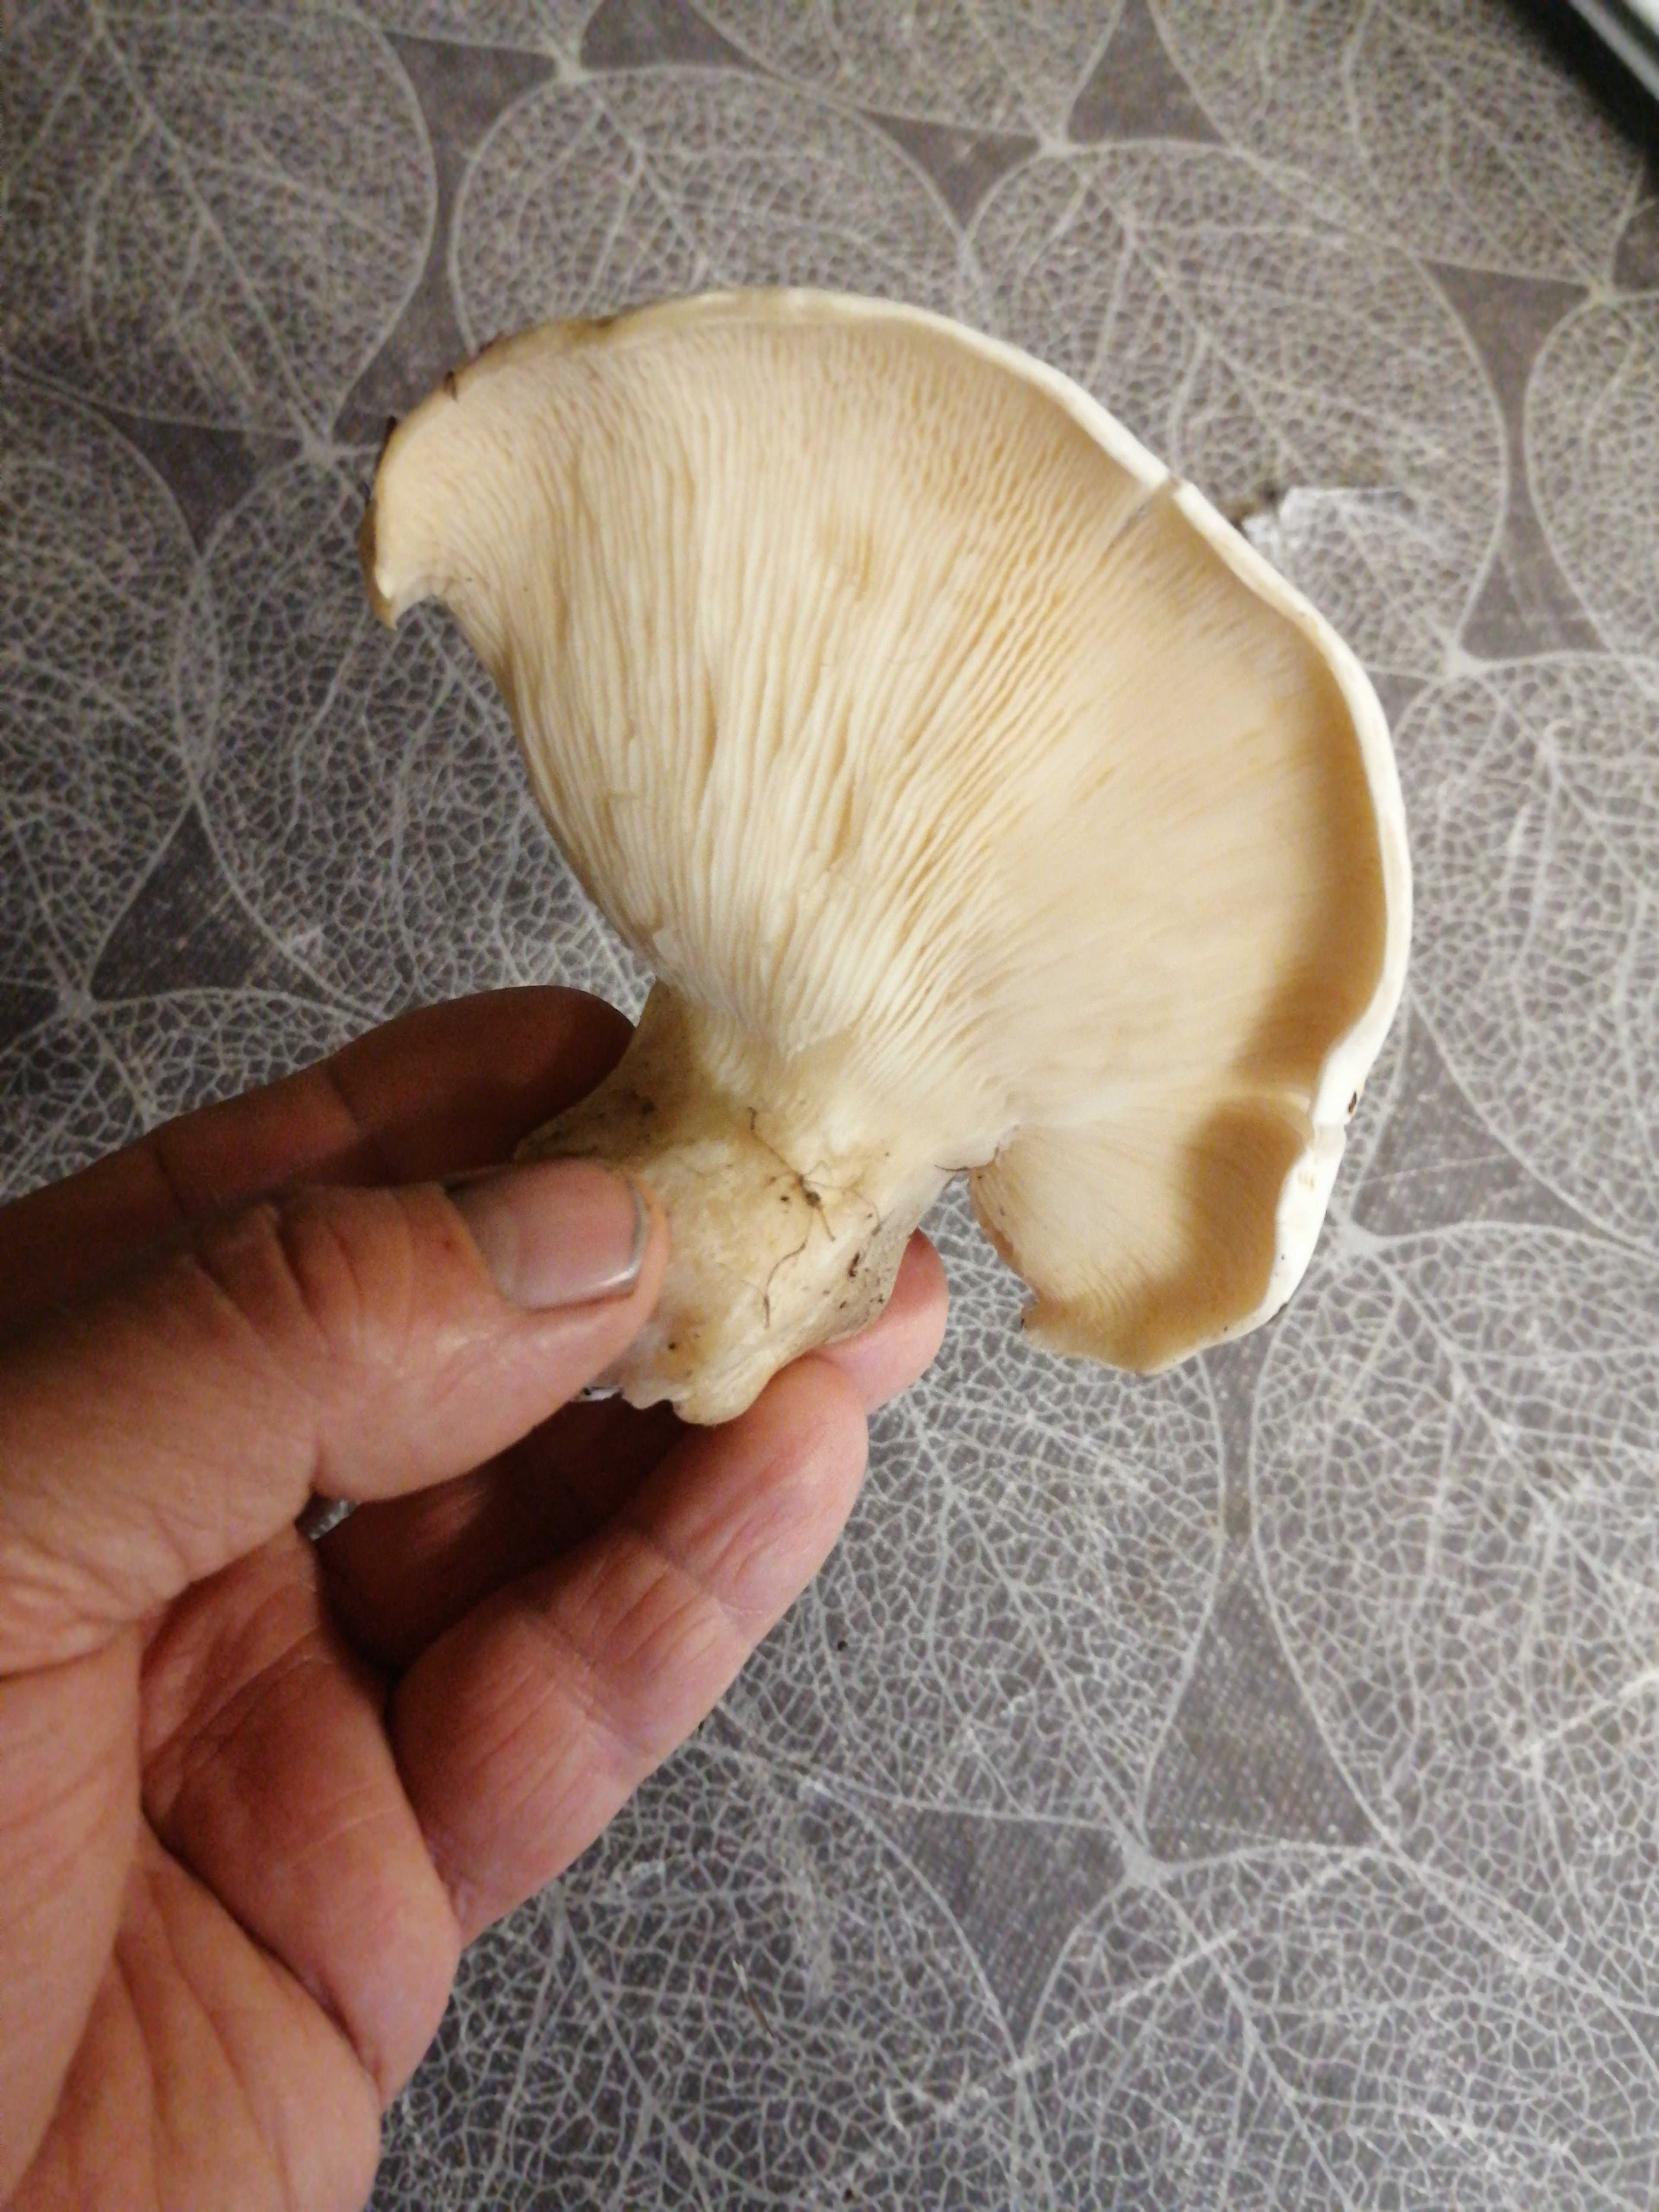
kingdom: Fungi
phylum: Basidiomycota
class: Agaricomycetes
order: Agaricales
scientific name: Agaricales
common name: champignonordenen
